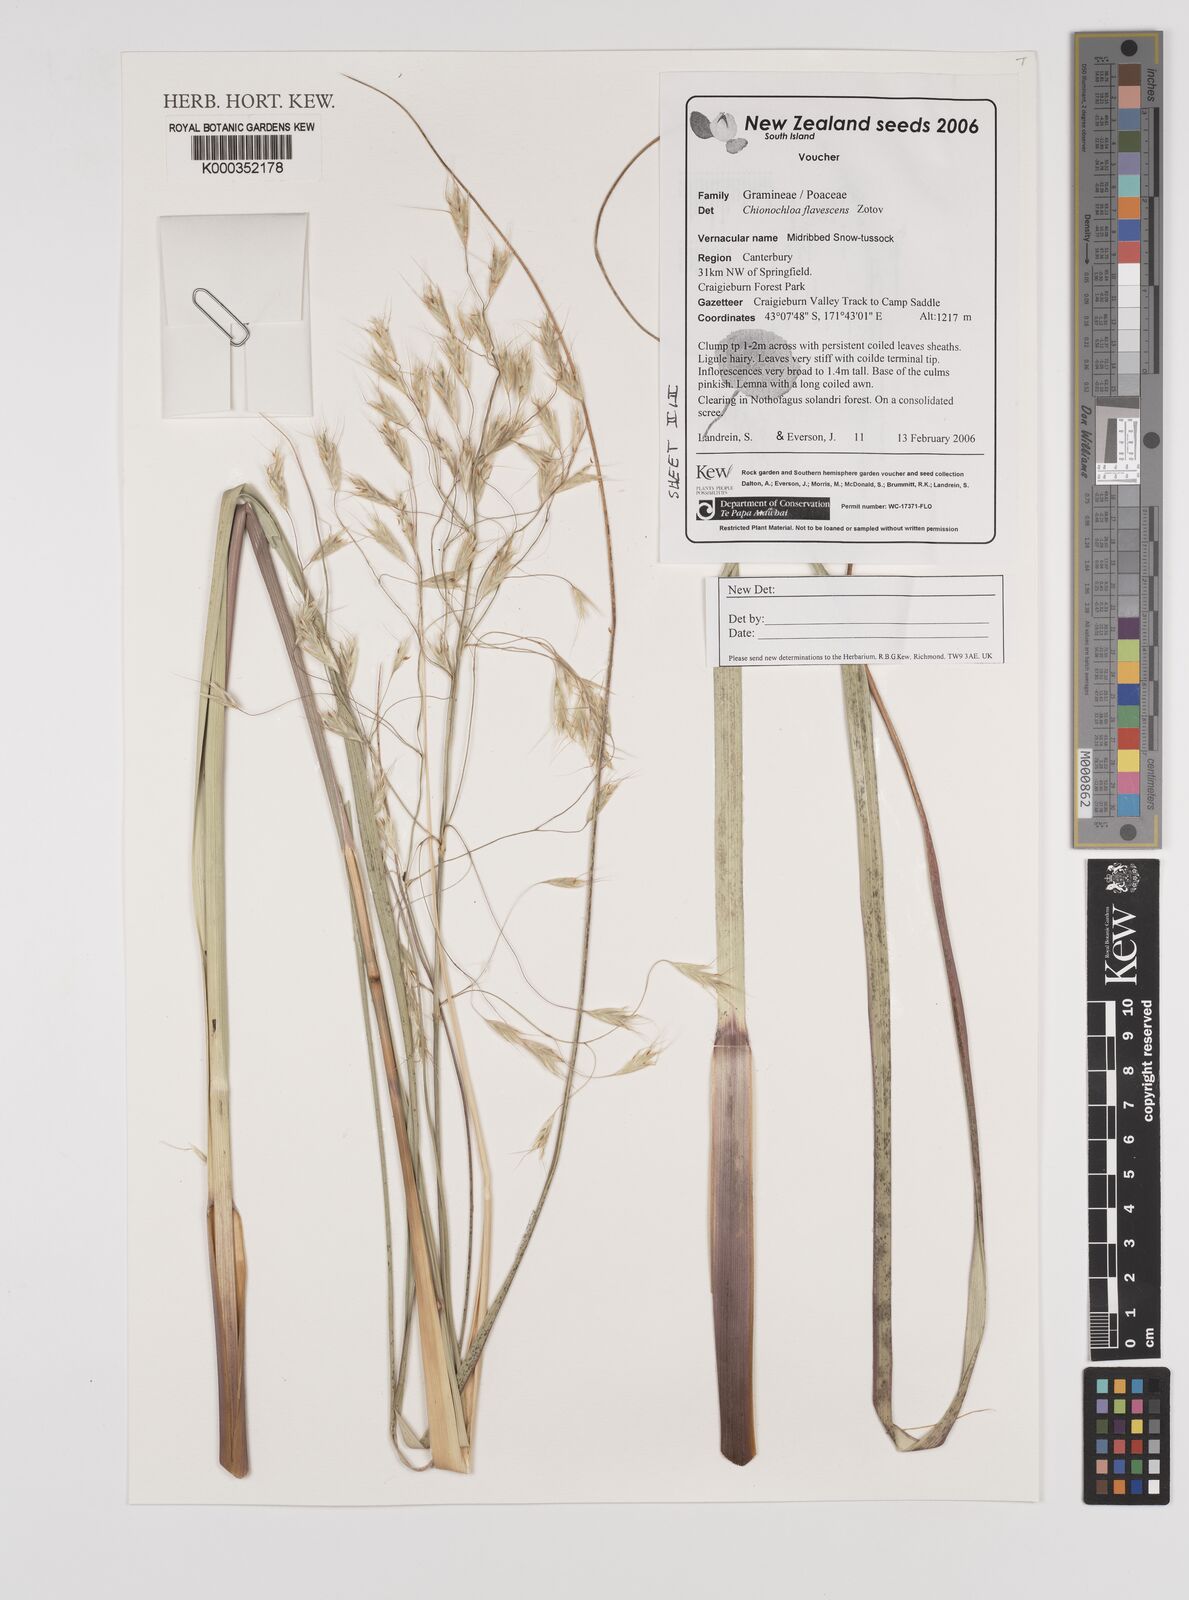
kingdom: Plantae
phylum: Tracheophyta
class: Liliopsida
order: Poales
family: Poaceae
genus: Chionochloa
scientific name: Chionochloa flavescens
